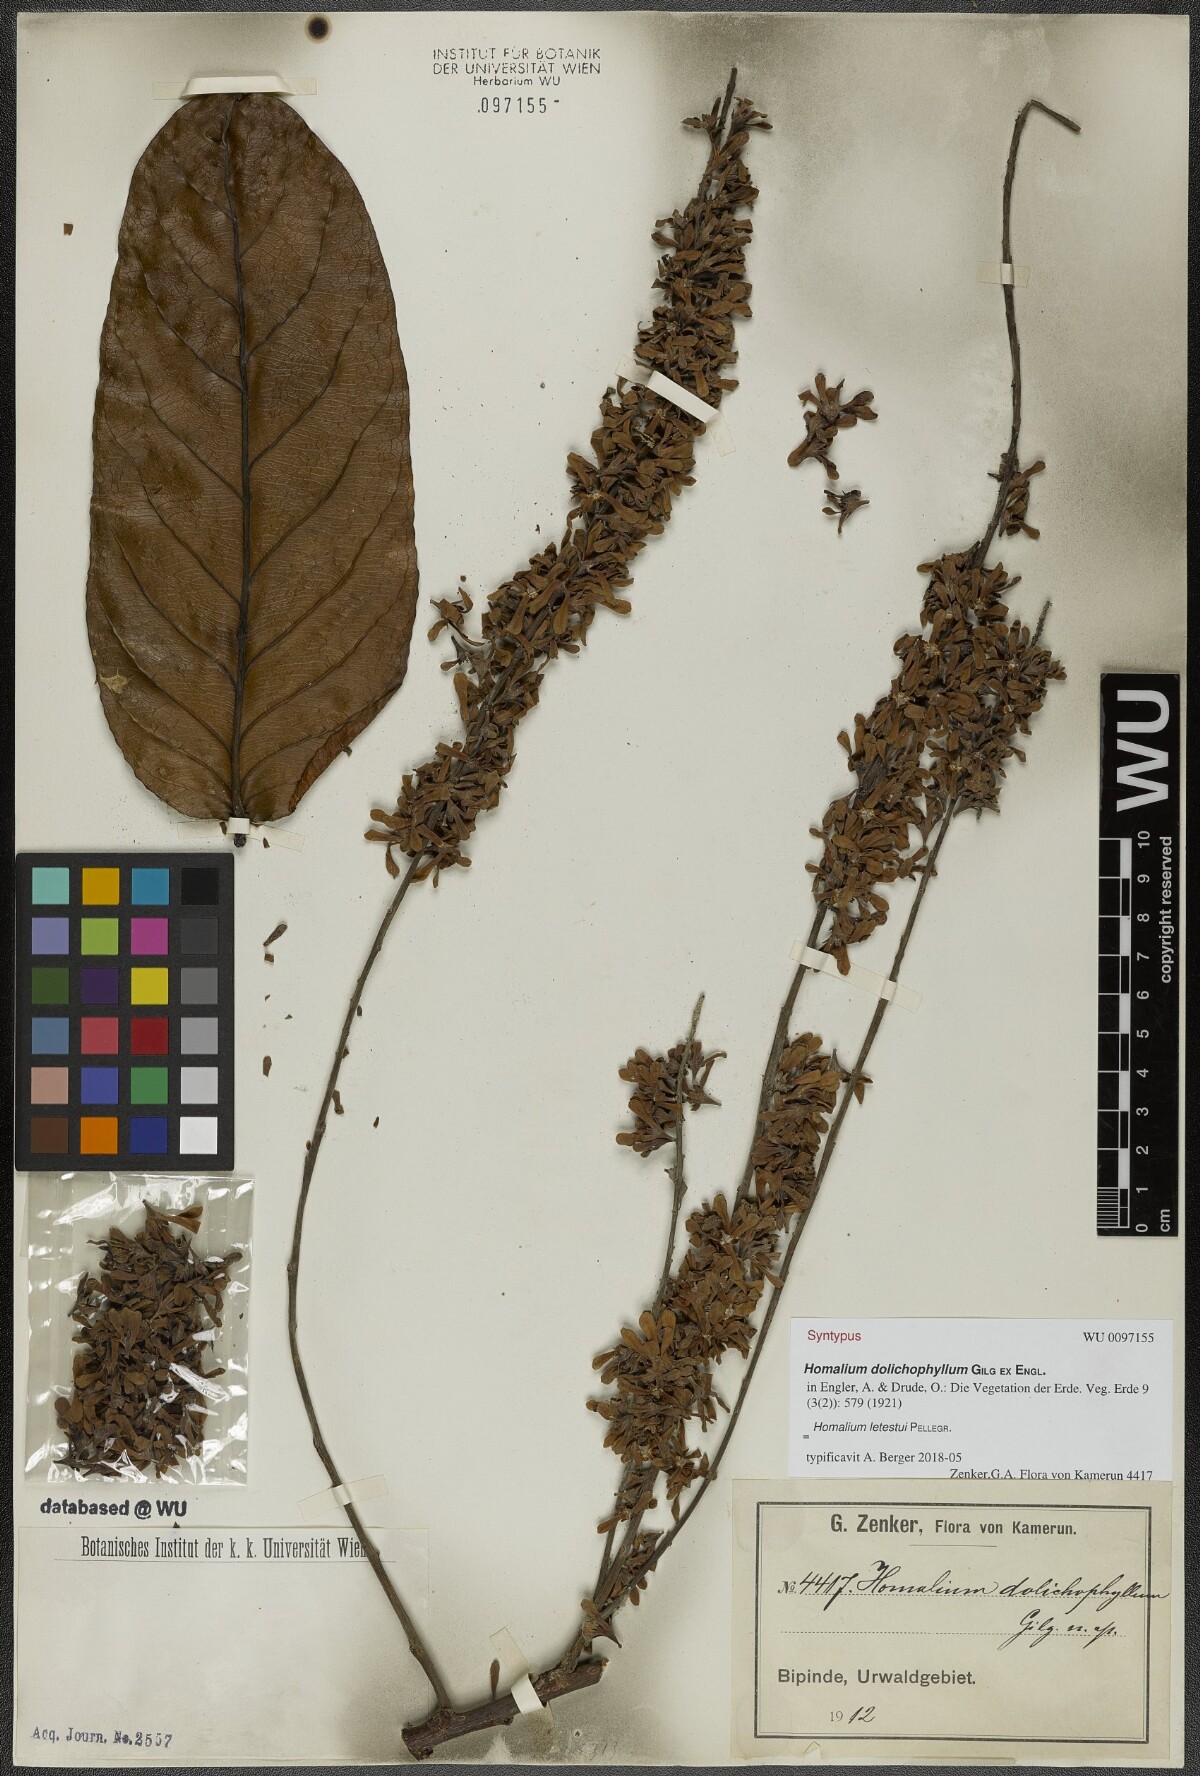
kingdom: Plantae
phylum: Tracheophyta
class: Magnoliopsida
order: Malpighiales
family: Salicaceae
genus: Homalium
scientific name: Homalium letestui
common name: African homalium
